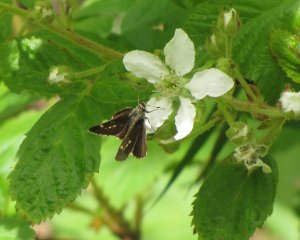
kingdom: Animalia
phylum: Arthropoda
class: Insecta
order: Lepidoptera
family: Hesperiidae
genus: Mastor
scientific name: Mastor hegon
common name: Pepper and Salt Skipper
